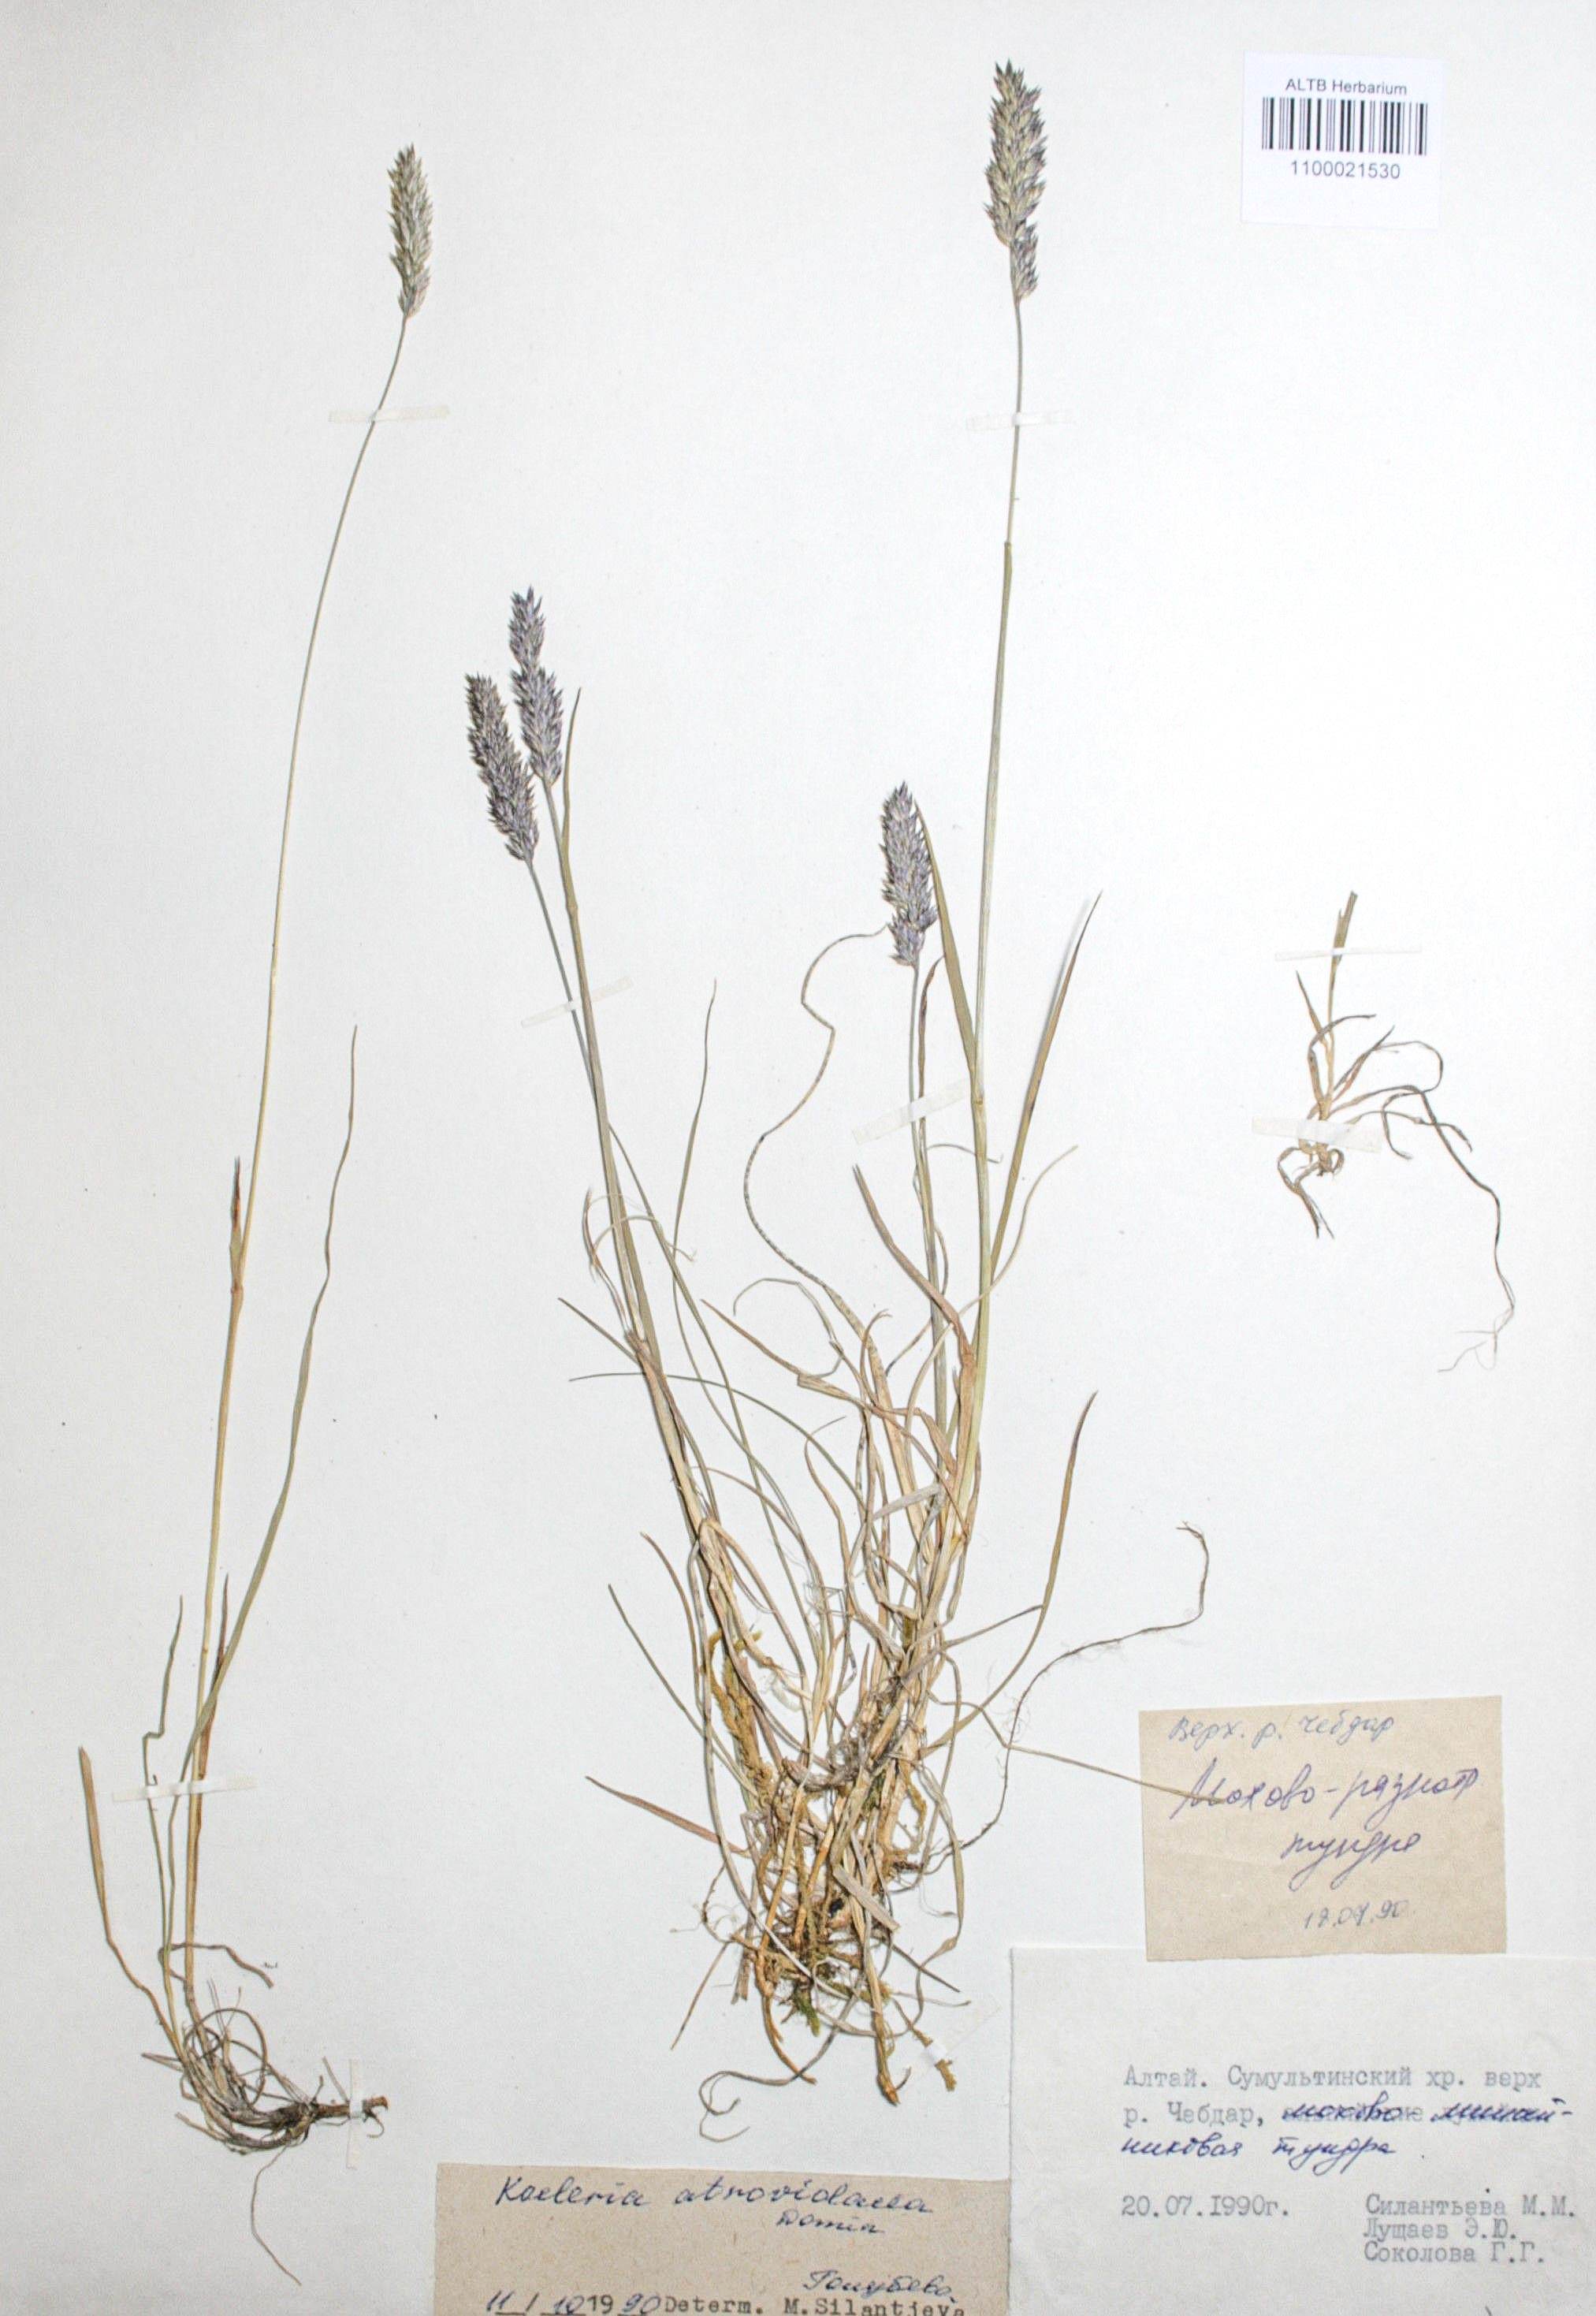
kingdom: Plantae
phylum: Tracheophyta
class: Liliopsida
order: Poales
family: Poaceae
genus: Koeleria
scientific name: Koeleria asiatica
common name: Eurasian junegrass
